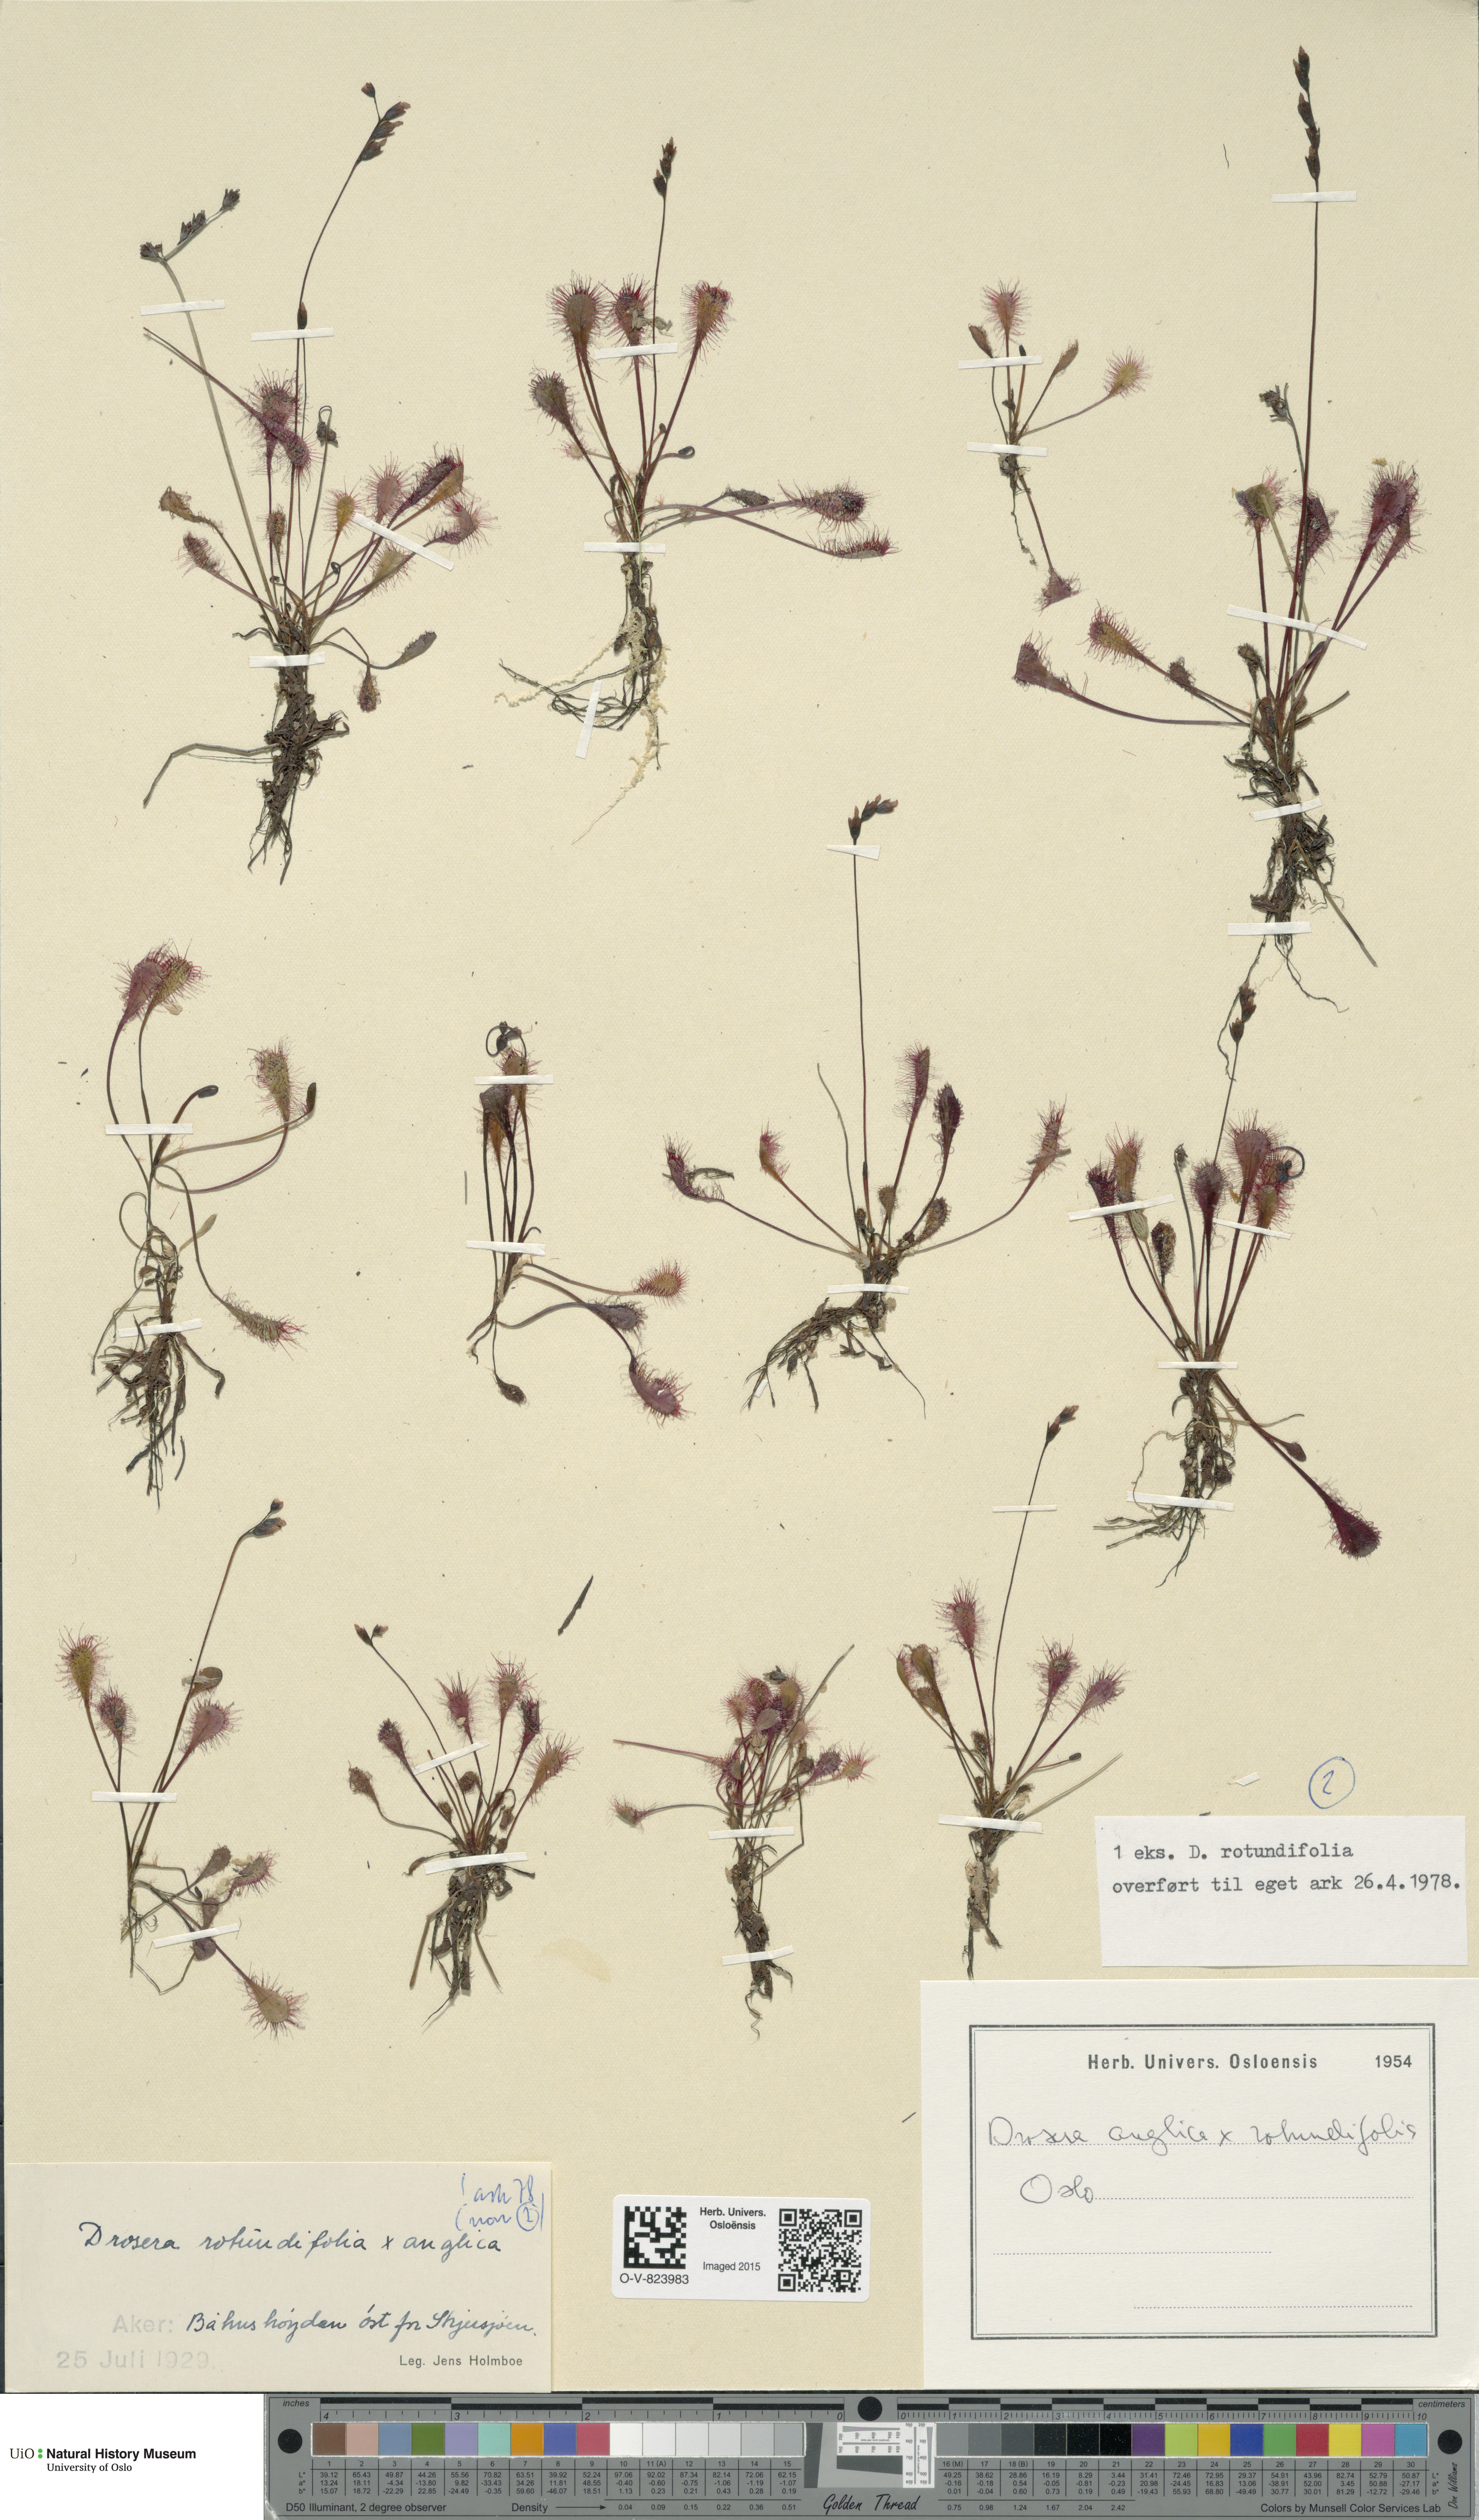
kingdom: Plantae
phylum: Tracheophyta
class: Magnoliopsida
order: Caryophyllales
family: Droseraceae
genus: Drosera
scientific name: Drosera
